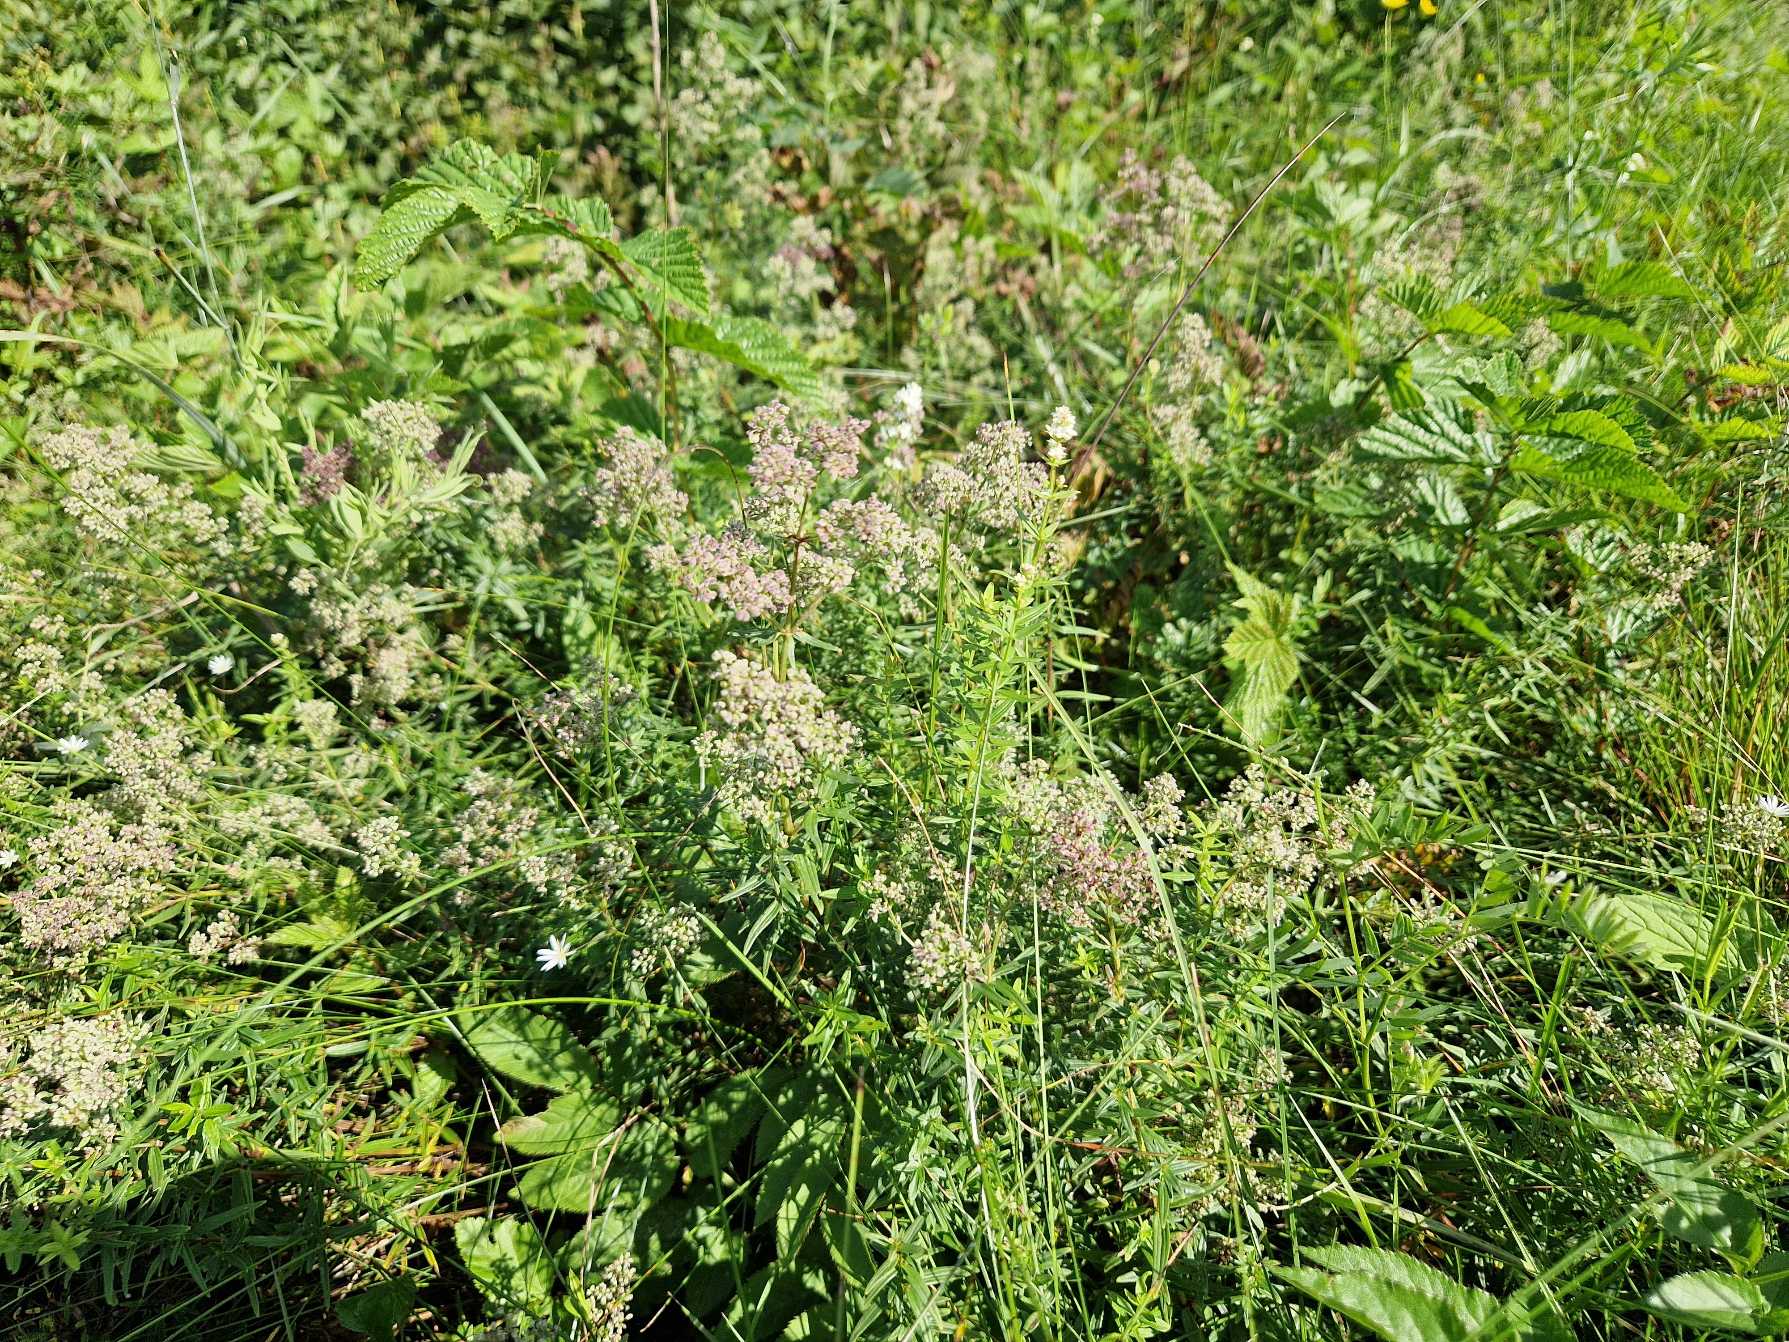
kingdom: Plantae
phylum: Tracheophyta
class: Magnoliopsida
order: Gentianales
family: Rubiaceae
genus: Galium
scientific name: Galium boreale
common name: Trenervet snerre
